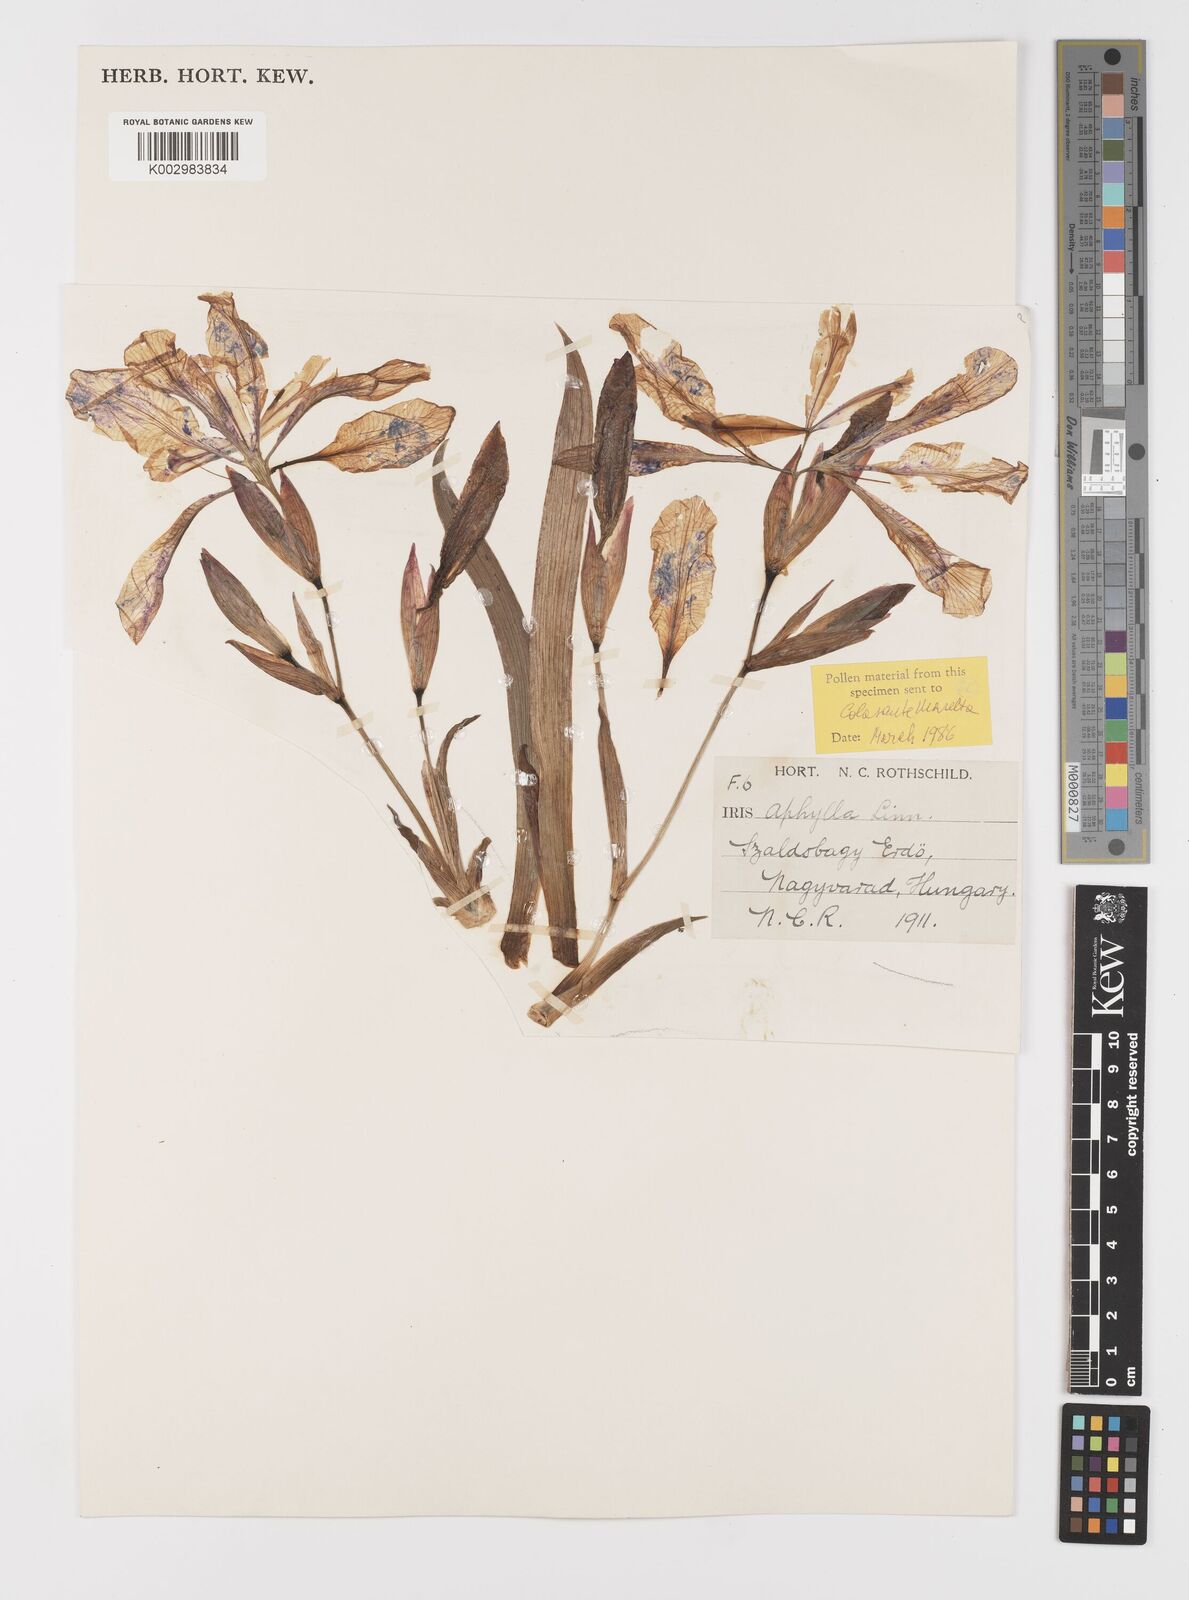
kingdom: Plantae
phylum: Tracheophyta
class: Liliopsida
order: Asparagales
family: Iridaceae
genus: Iris
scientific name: Iris aphylla
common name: Stool iris
